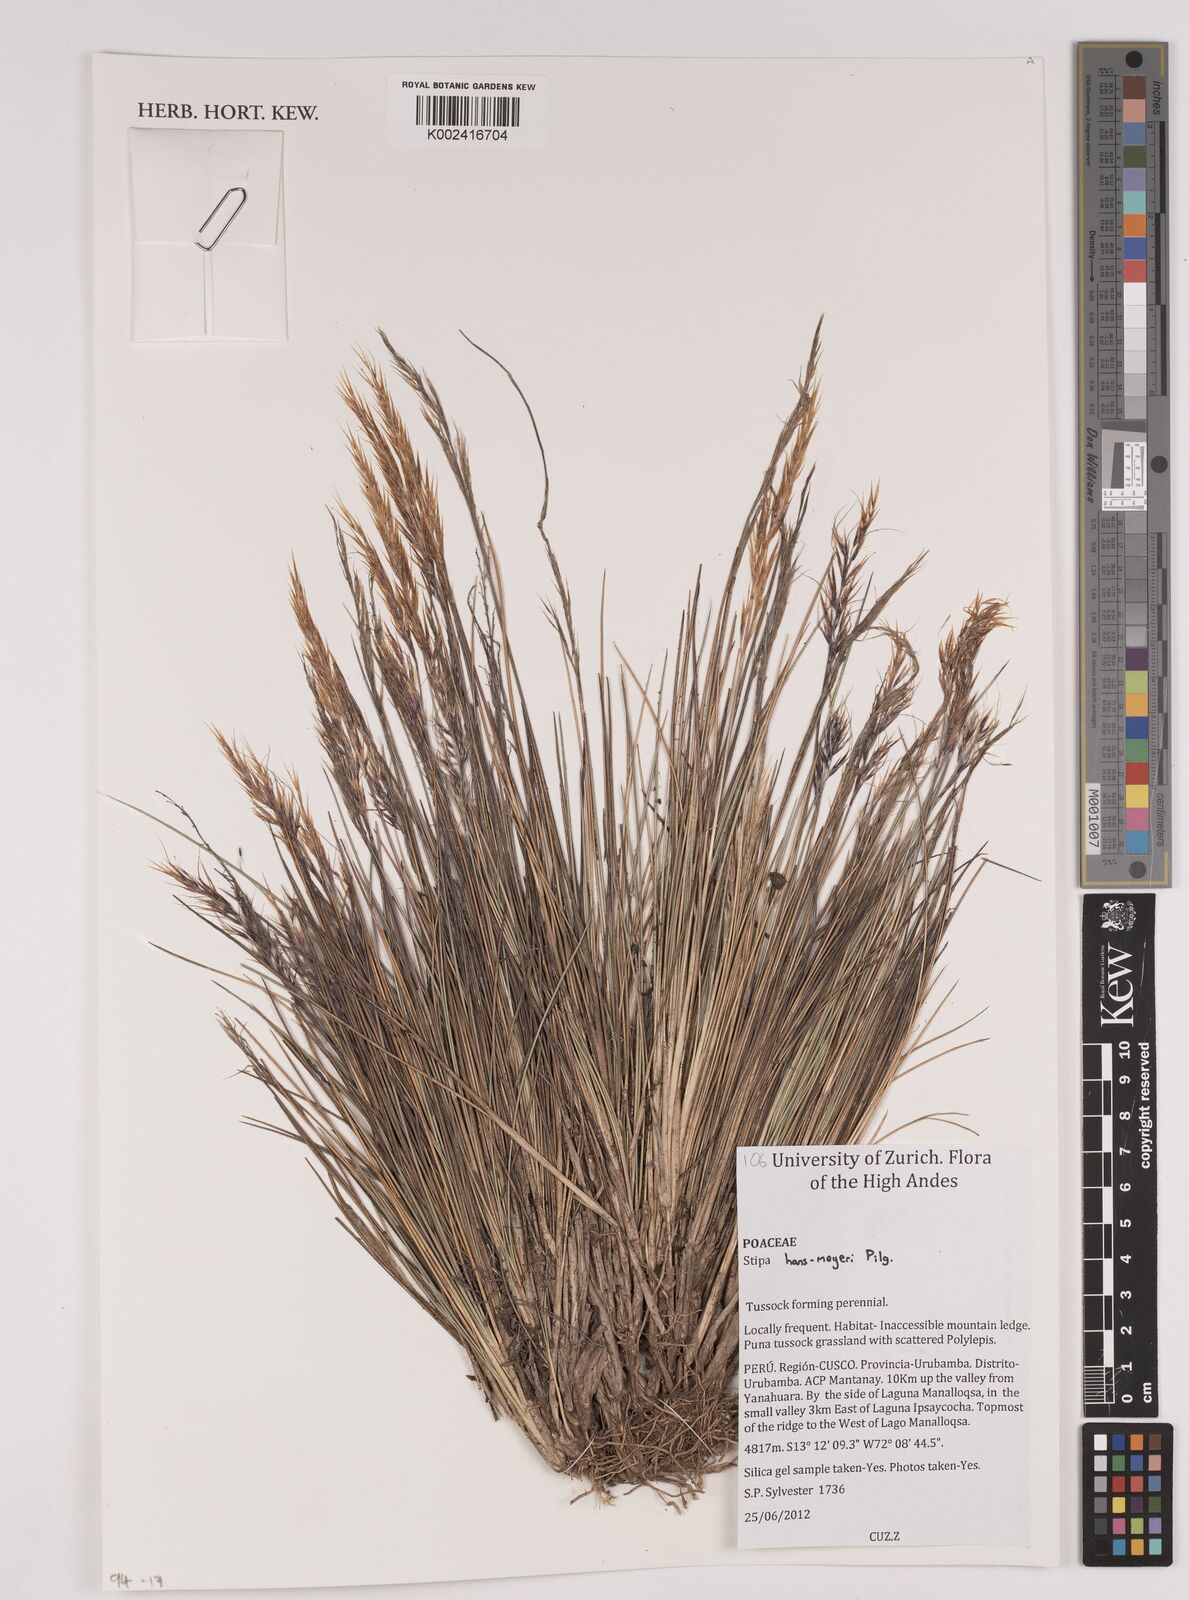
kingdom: Plantae
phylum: Tracheophyta
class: Liliopsida
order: Poales
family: Poaceae
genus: Stipa
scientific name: Stipa hans-meyeri
